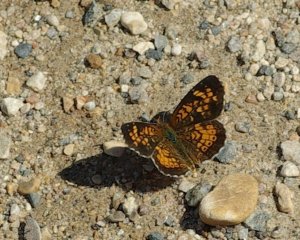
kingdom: Animalia
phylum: Arthropoda
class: Insecta
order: Lepidoptera
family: Nymphalidae
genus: Phyciodes
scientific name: Phyciodes batesii
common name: Tawny Crescent
